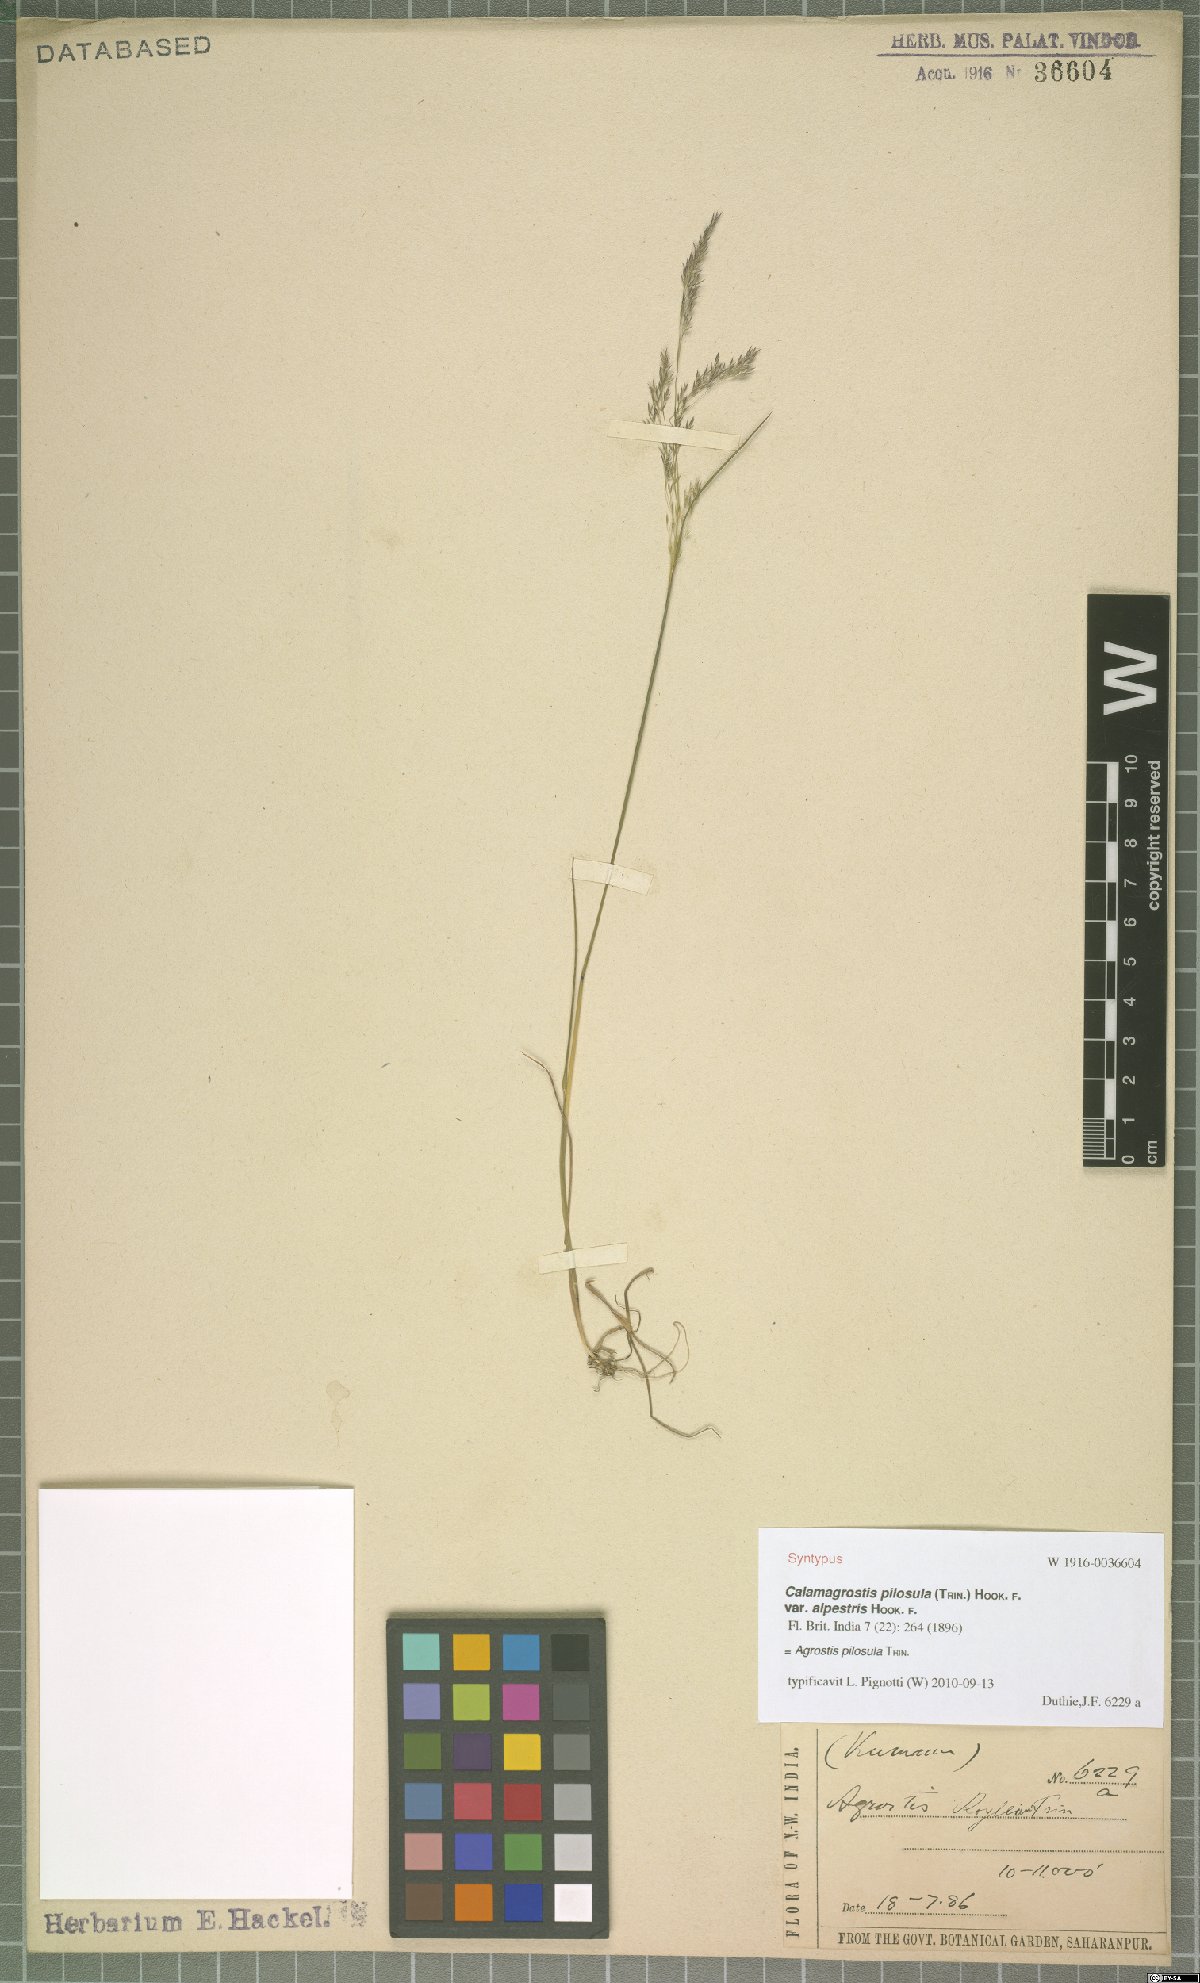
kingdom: Plantae
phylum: Tracheophyta
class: Liliopsida
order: Poales
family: Poaceae
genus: Agrostis
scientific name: Agrostis pilosula
